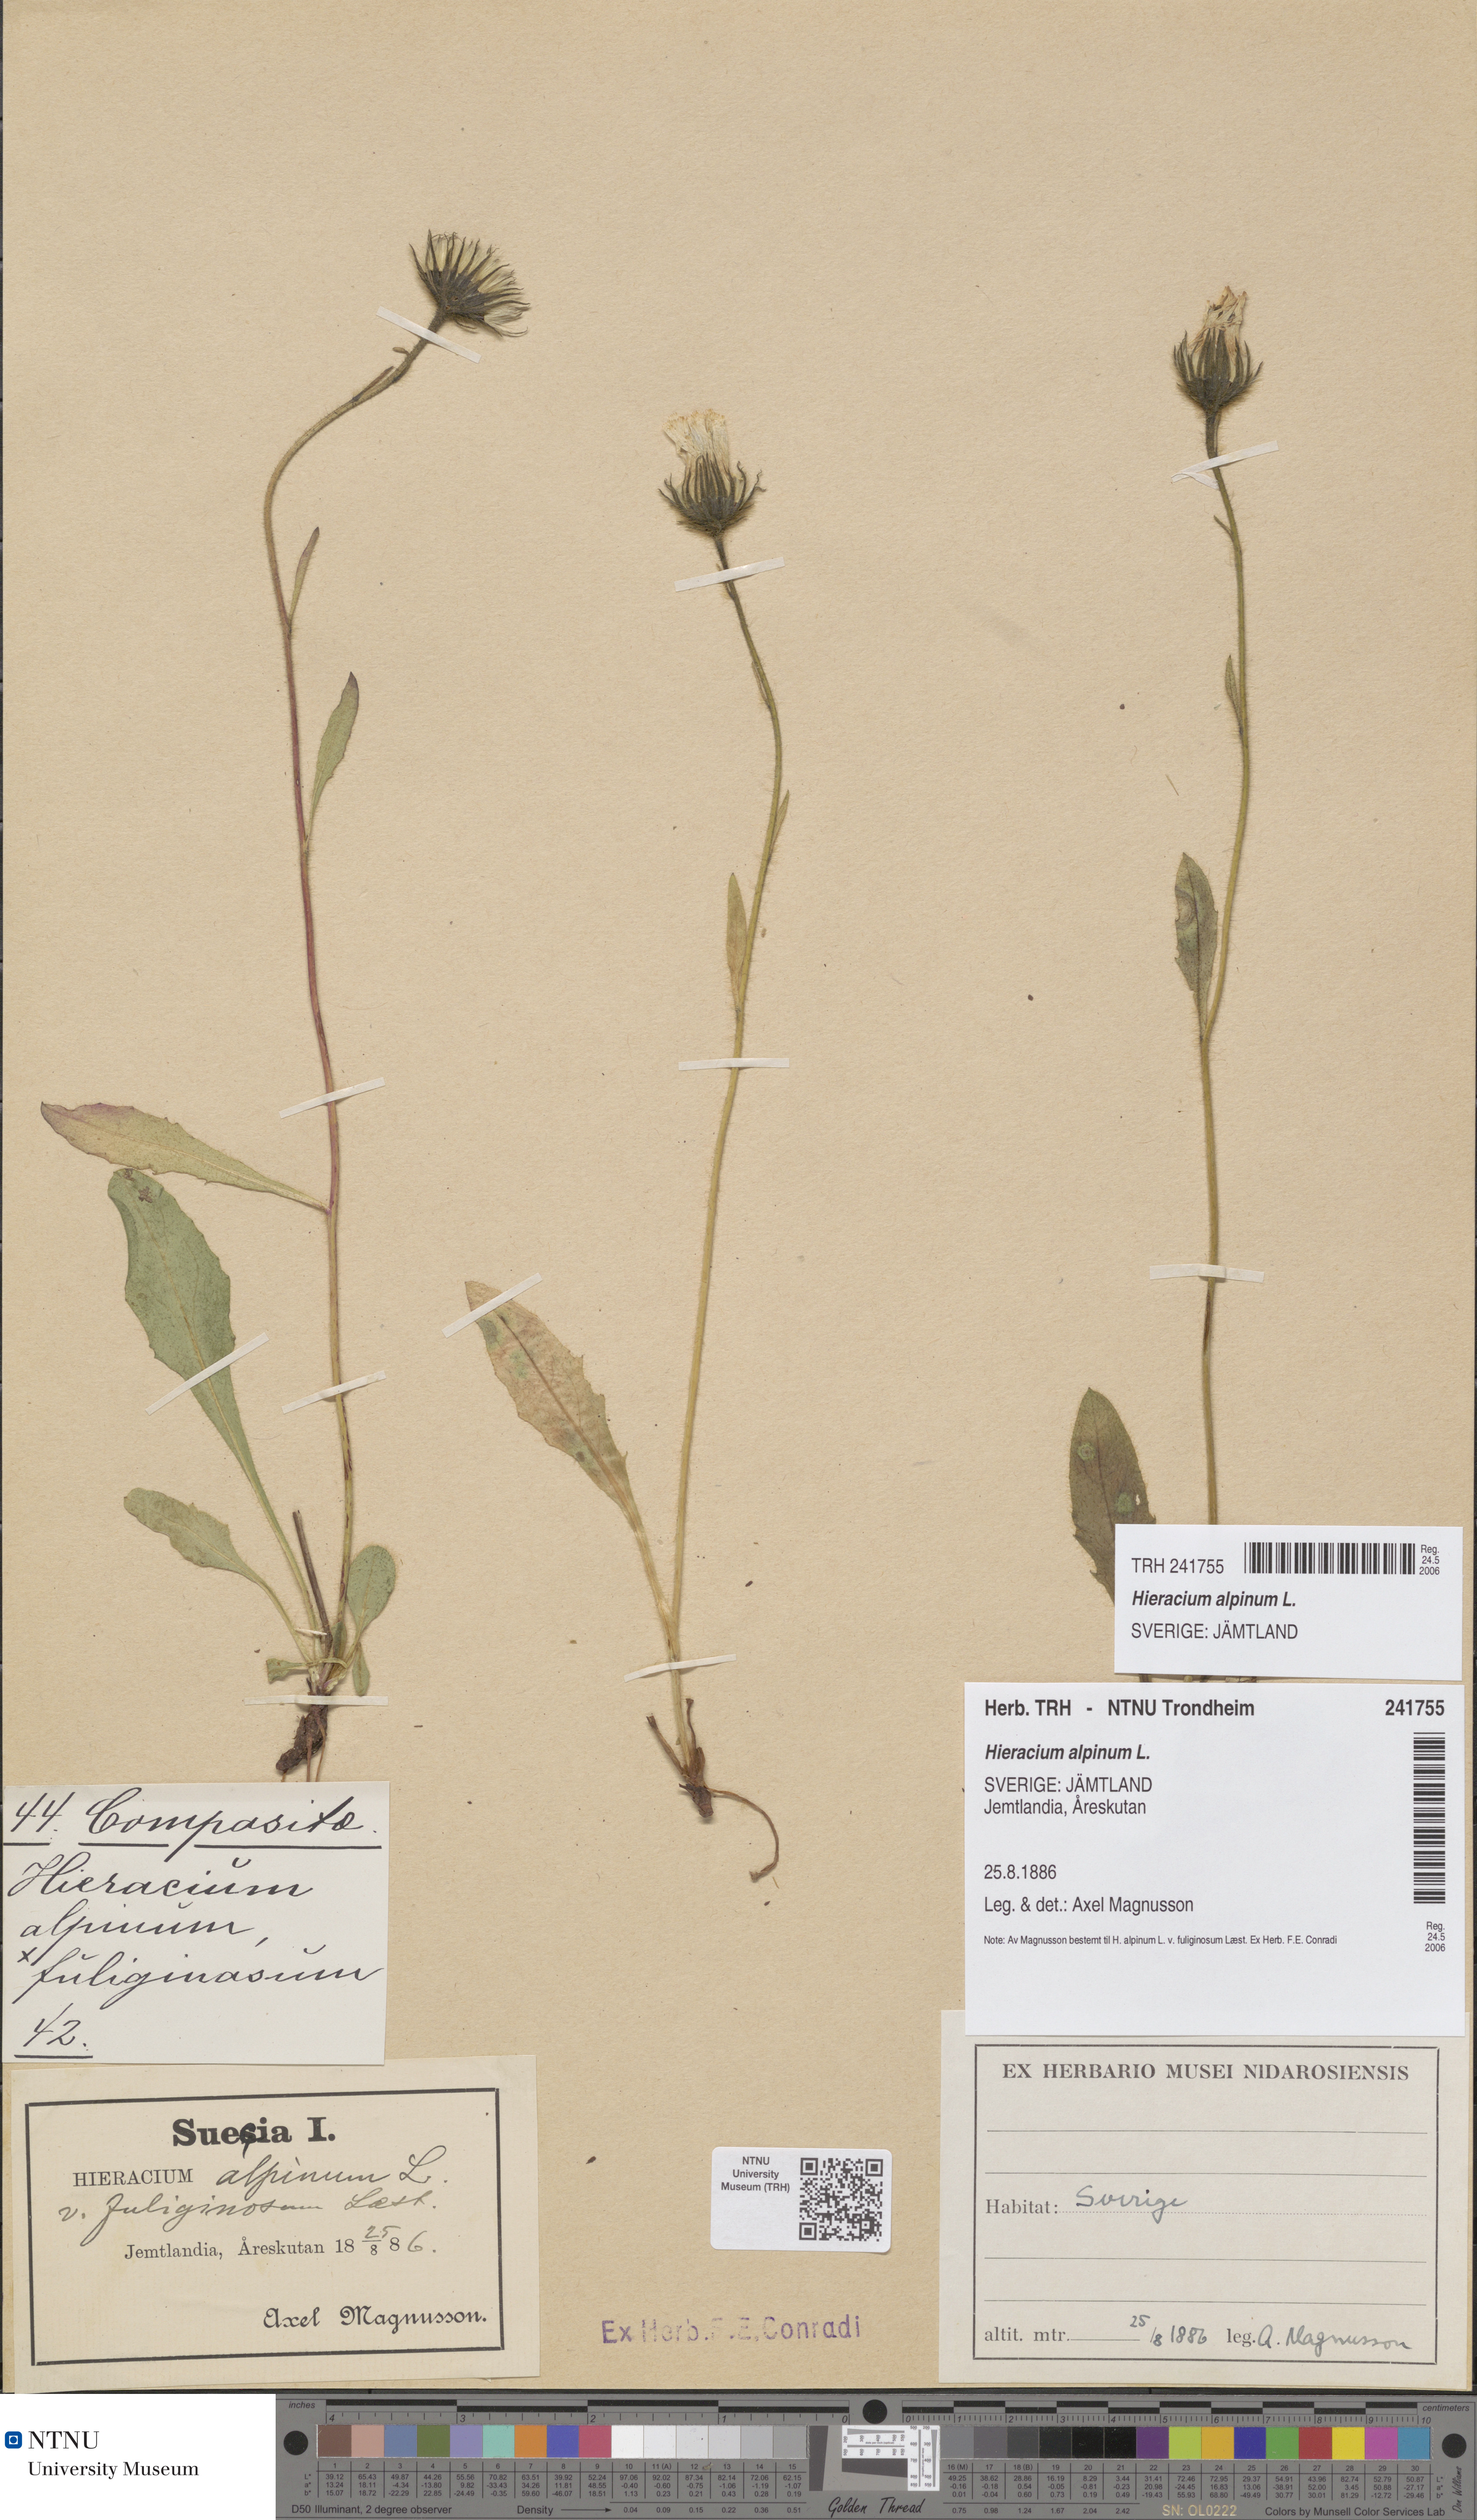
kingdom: Plantae
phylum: Tracheophyta
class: Magnoliopsida
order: Asterales
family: Asteraceae
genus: Hieracium
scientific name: Hieracium alpinum
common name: Alpine hawkweed
